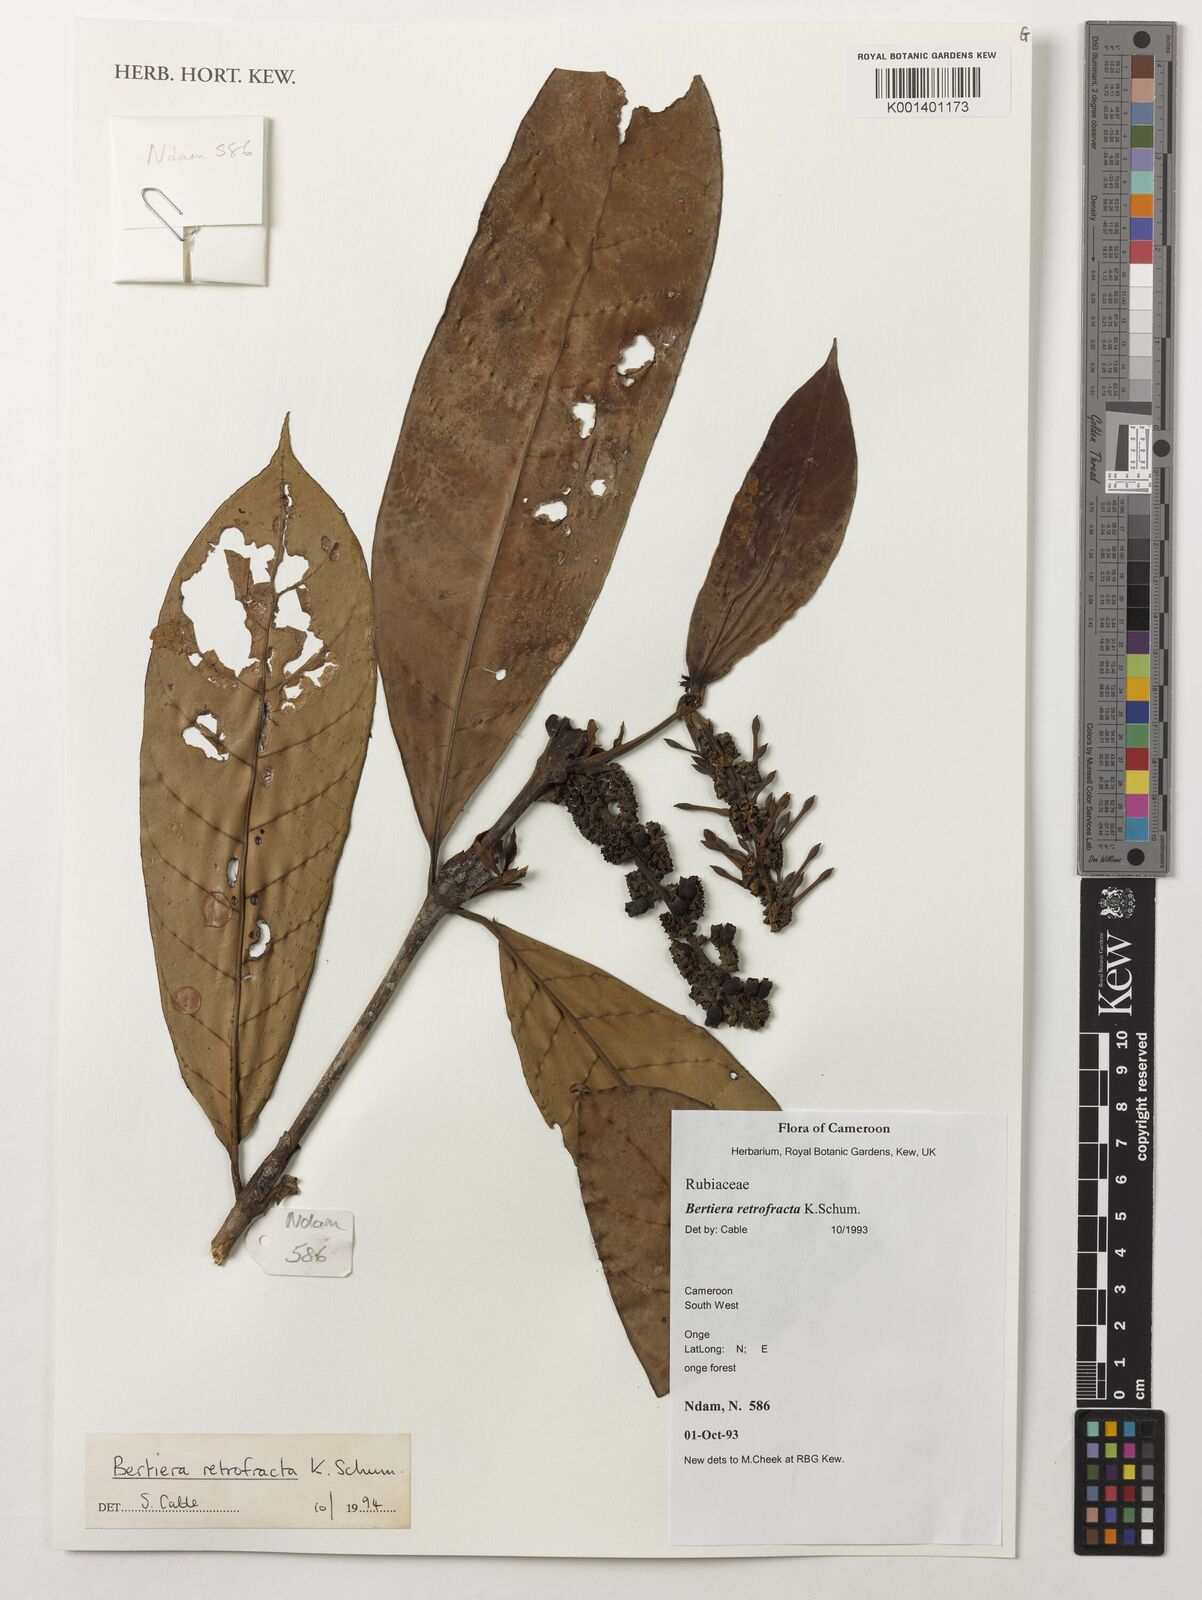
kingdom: Plantae
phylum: Tracheophyta
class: Magnoliopsida
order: Gentianales
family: Rubiaceae
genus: Bertiera
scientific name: Bertiera retrofracta
